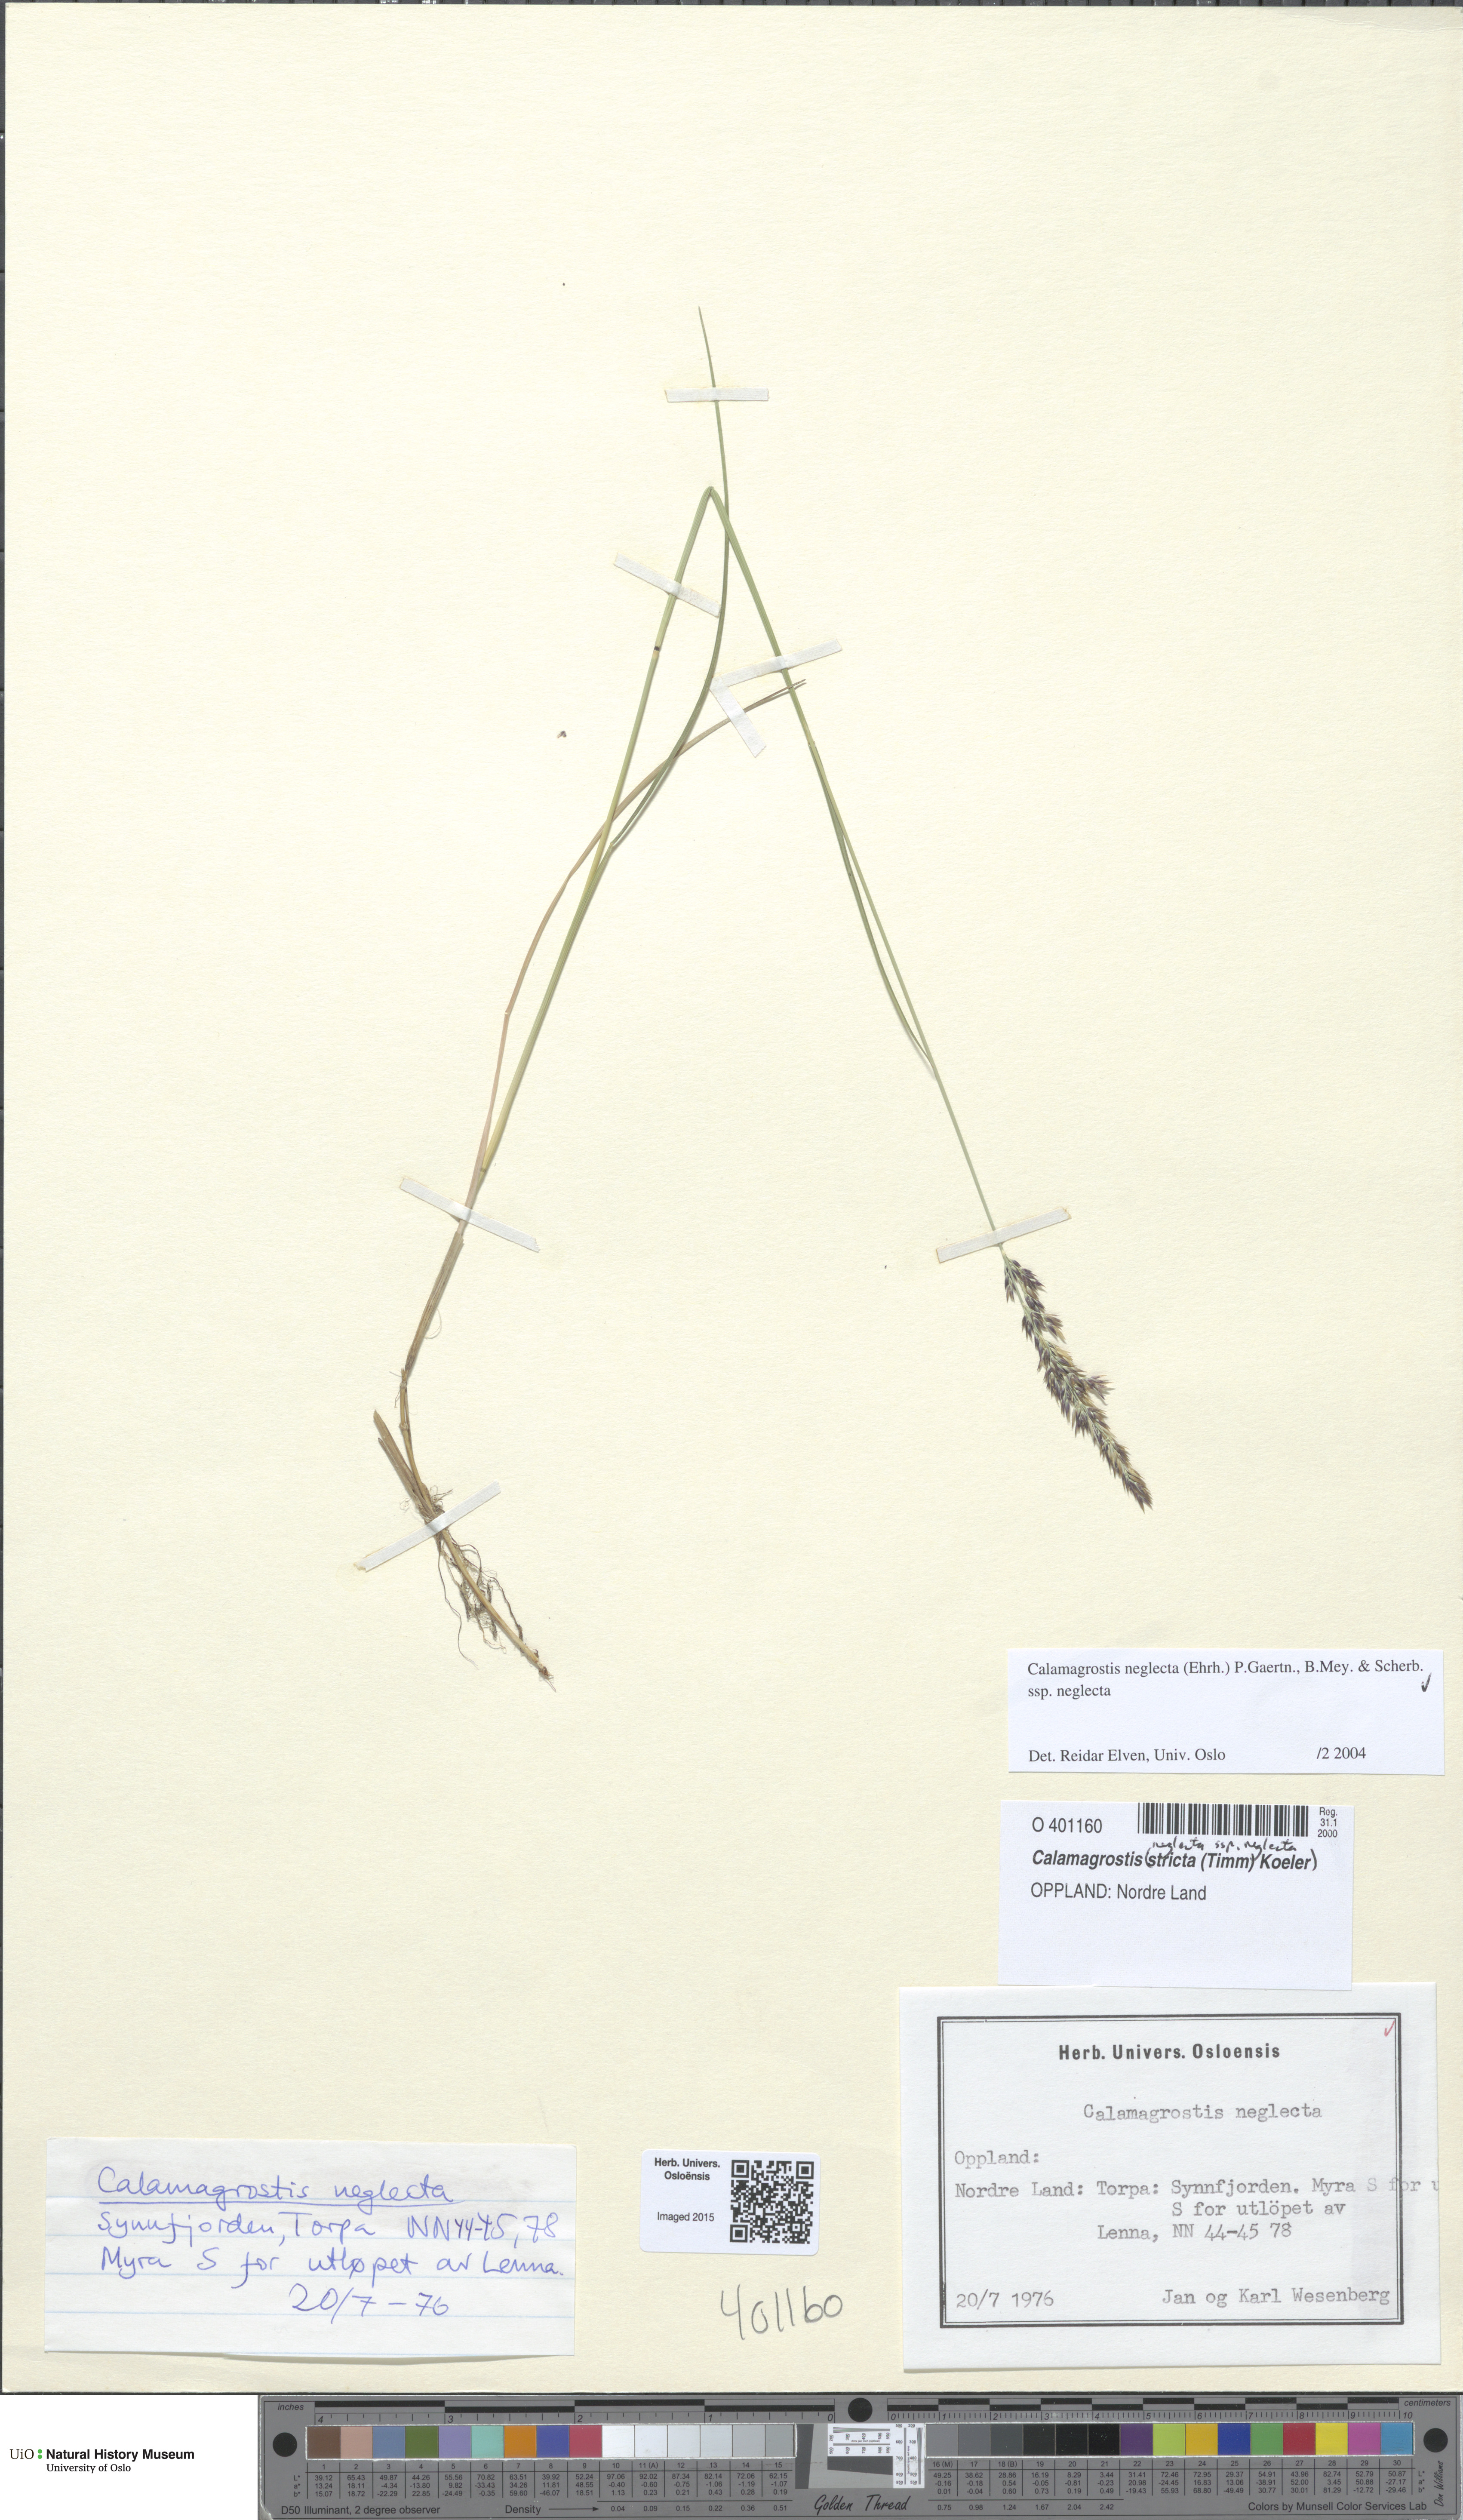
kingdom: Plantae
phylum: Tracheophyta
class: Liliopsida
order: Poales
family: Poaceae
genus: Achnatherum
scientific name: Achnatherum calamagrostis
